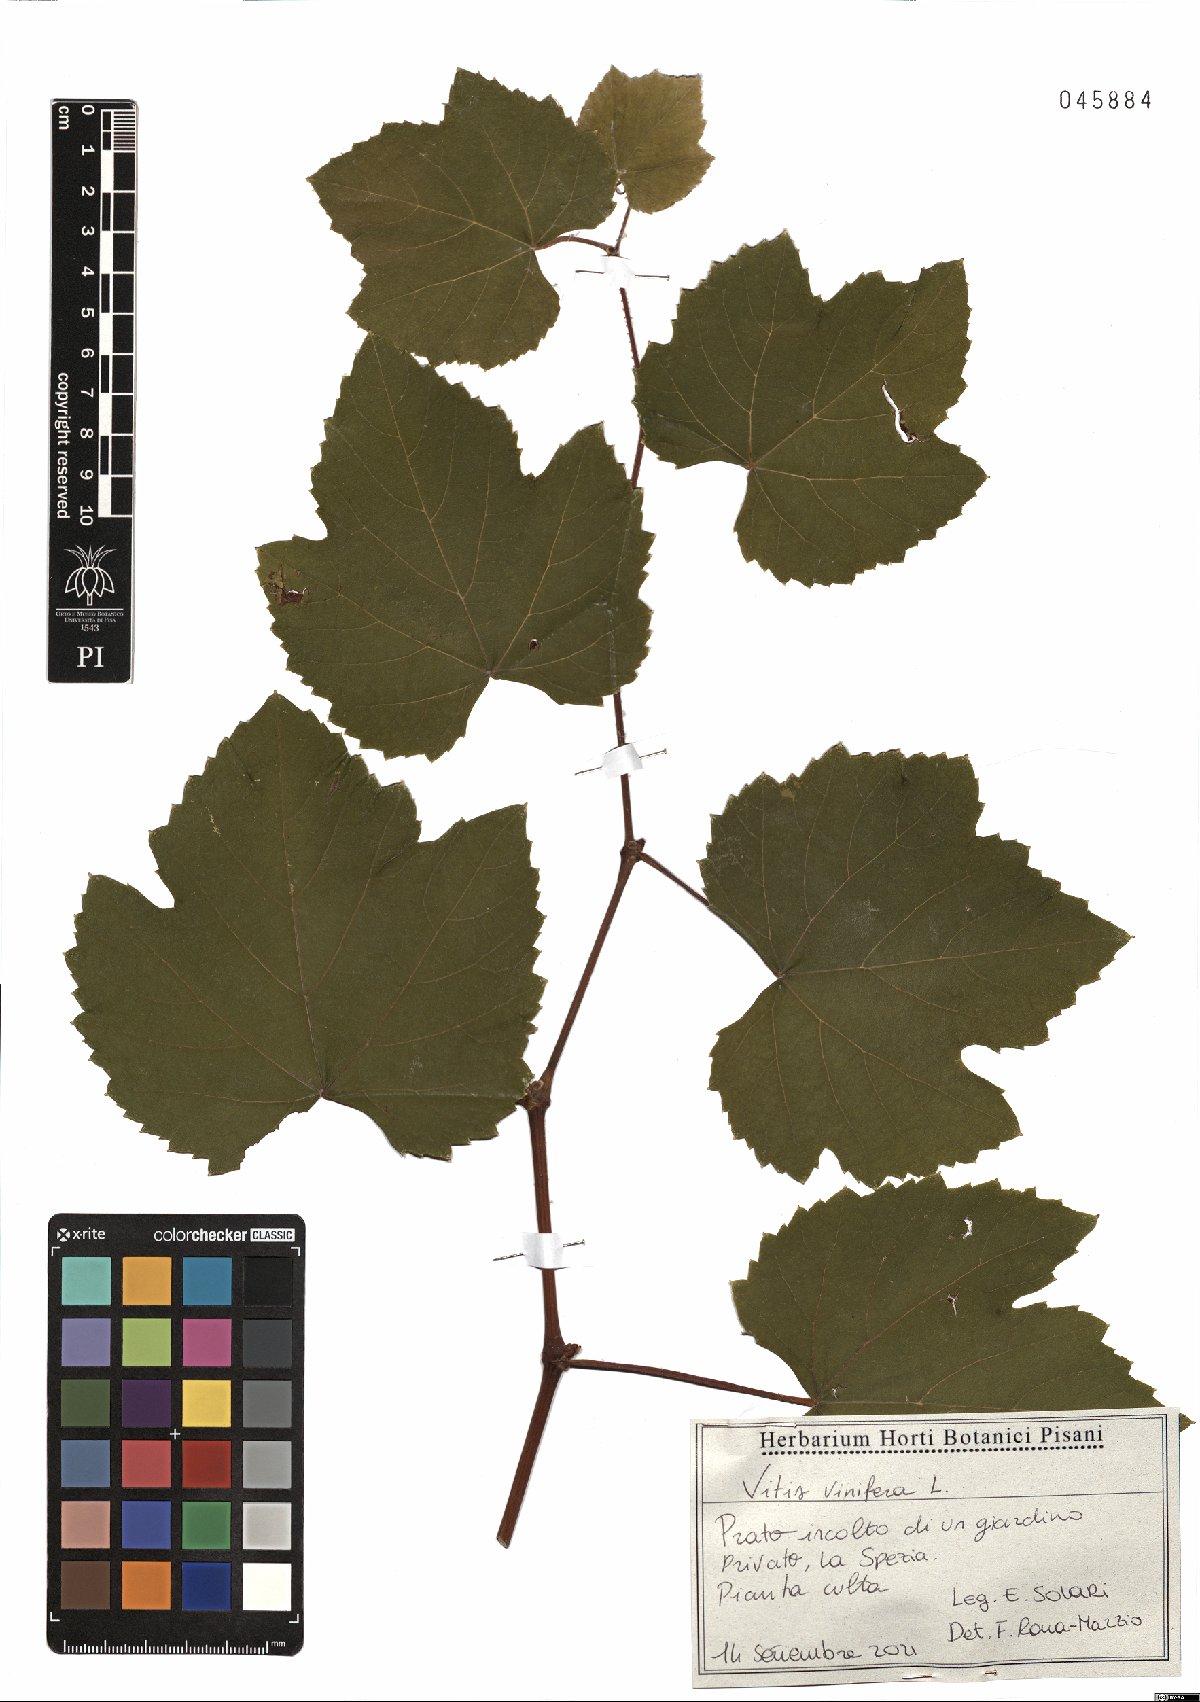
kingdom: Plantae
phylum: Tracheophyta
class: Magnoliopsida
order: Vitales
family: Vitaceae
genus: Vitis
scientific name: Vitis vinifera
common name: Grape-vine
